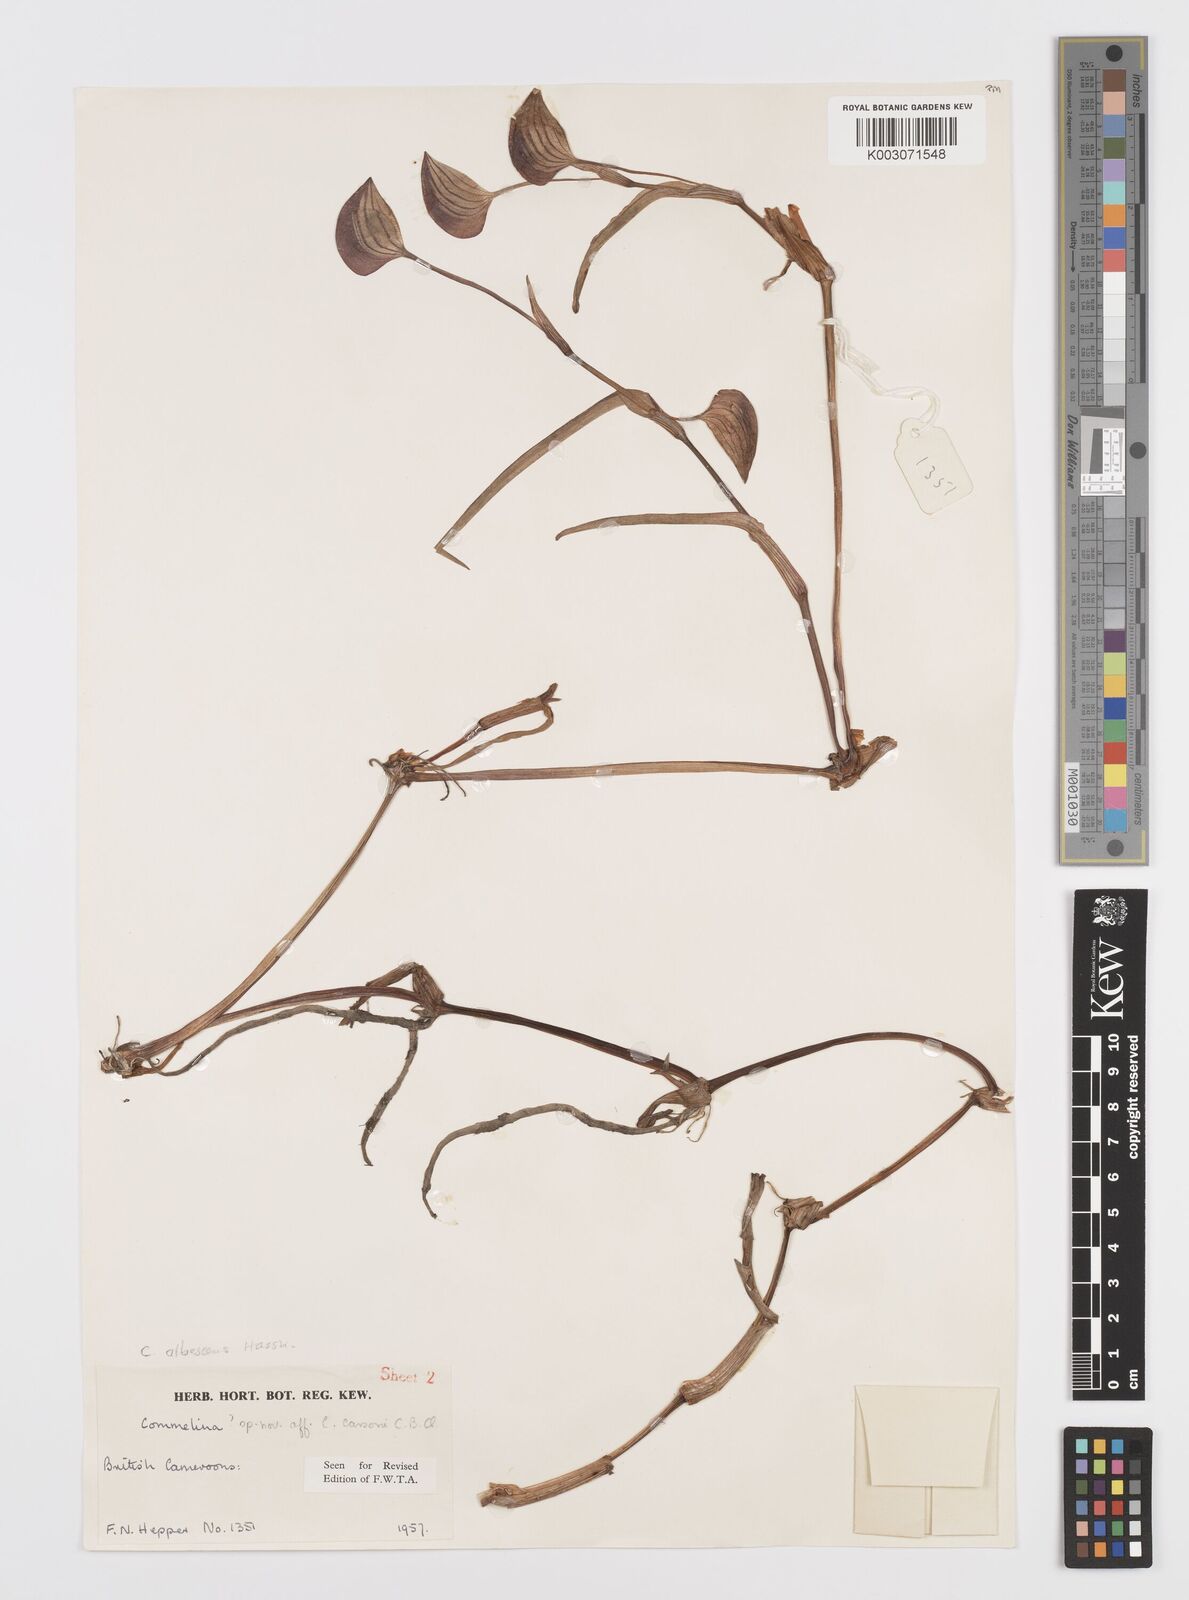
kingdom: Plantae
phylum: Tracheophyta
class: Liliopsida
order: Commelinales
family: Commelinaceae
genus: Commelina
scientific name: Commelina schweinfurthii
